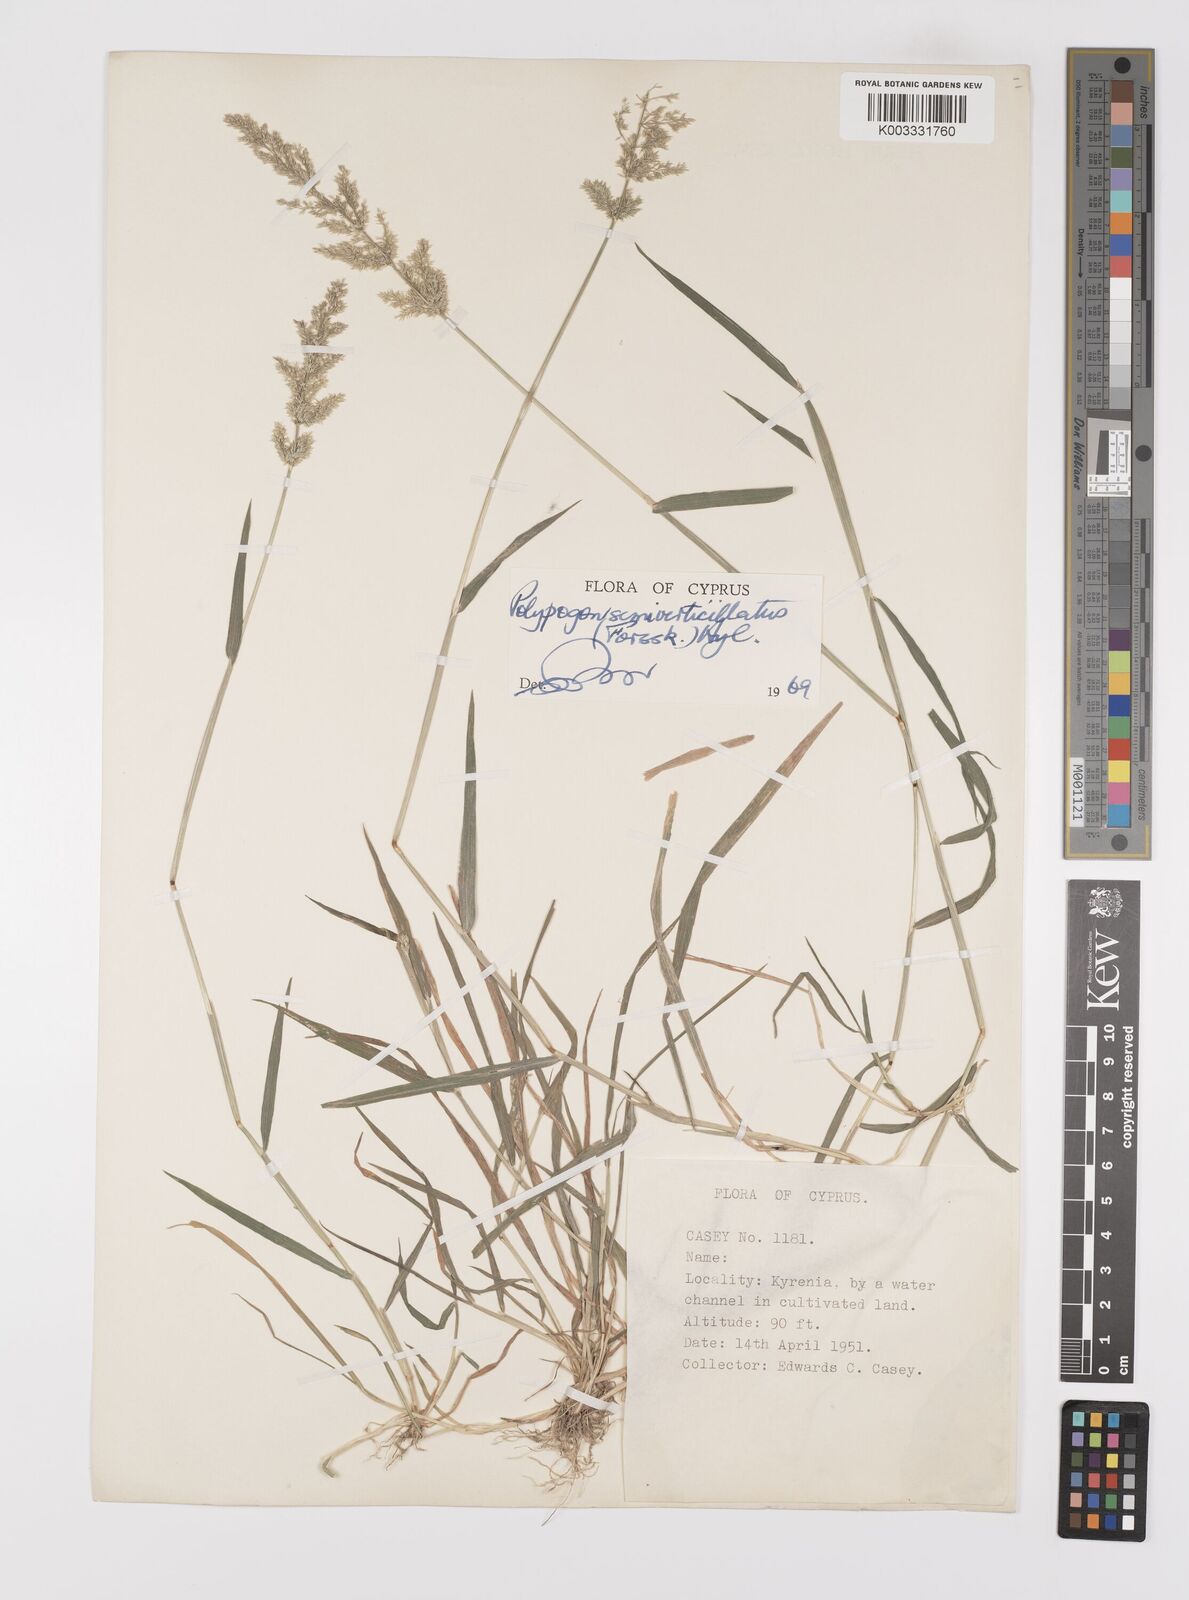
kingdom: Plantae
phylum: Tracheophyta
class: Liliopsida
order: Poales
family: Poaceae
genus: Polypogon
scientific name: Polypogon viridis
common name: Water bent
